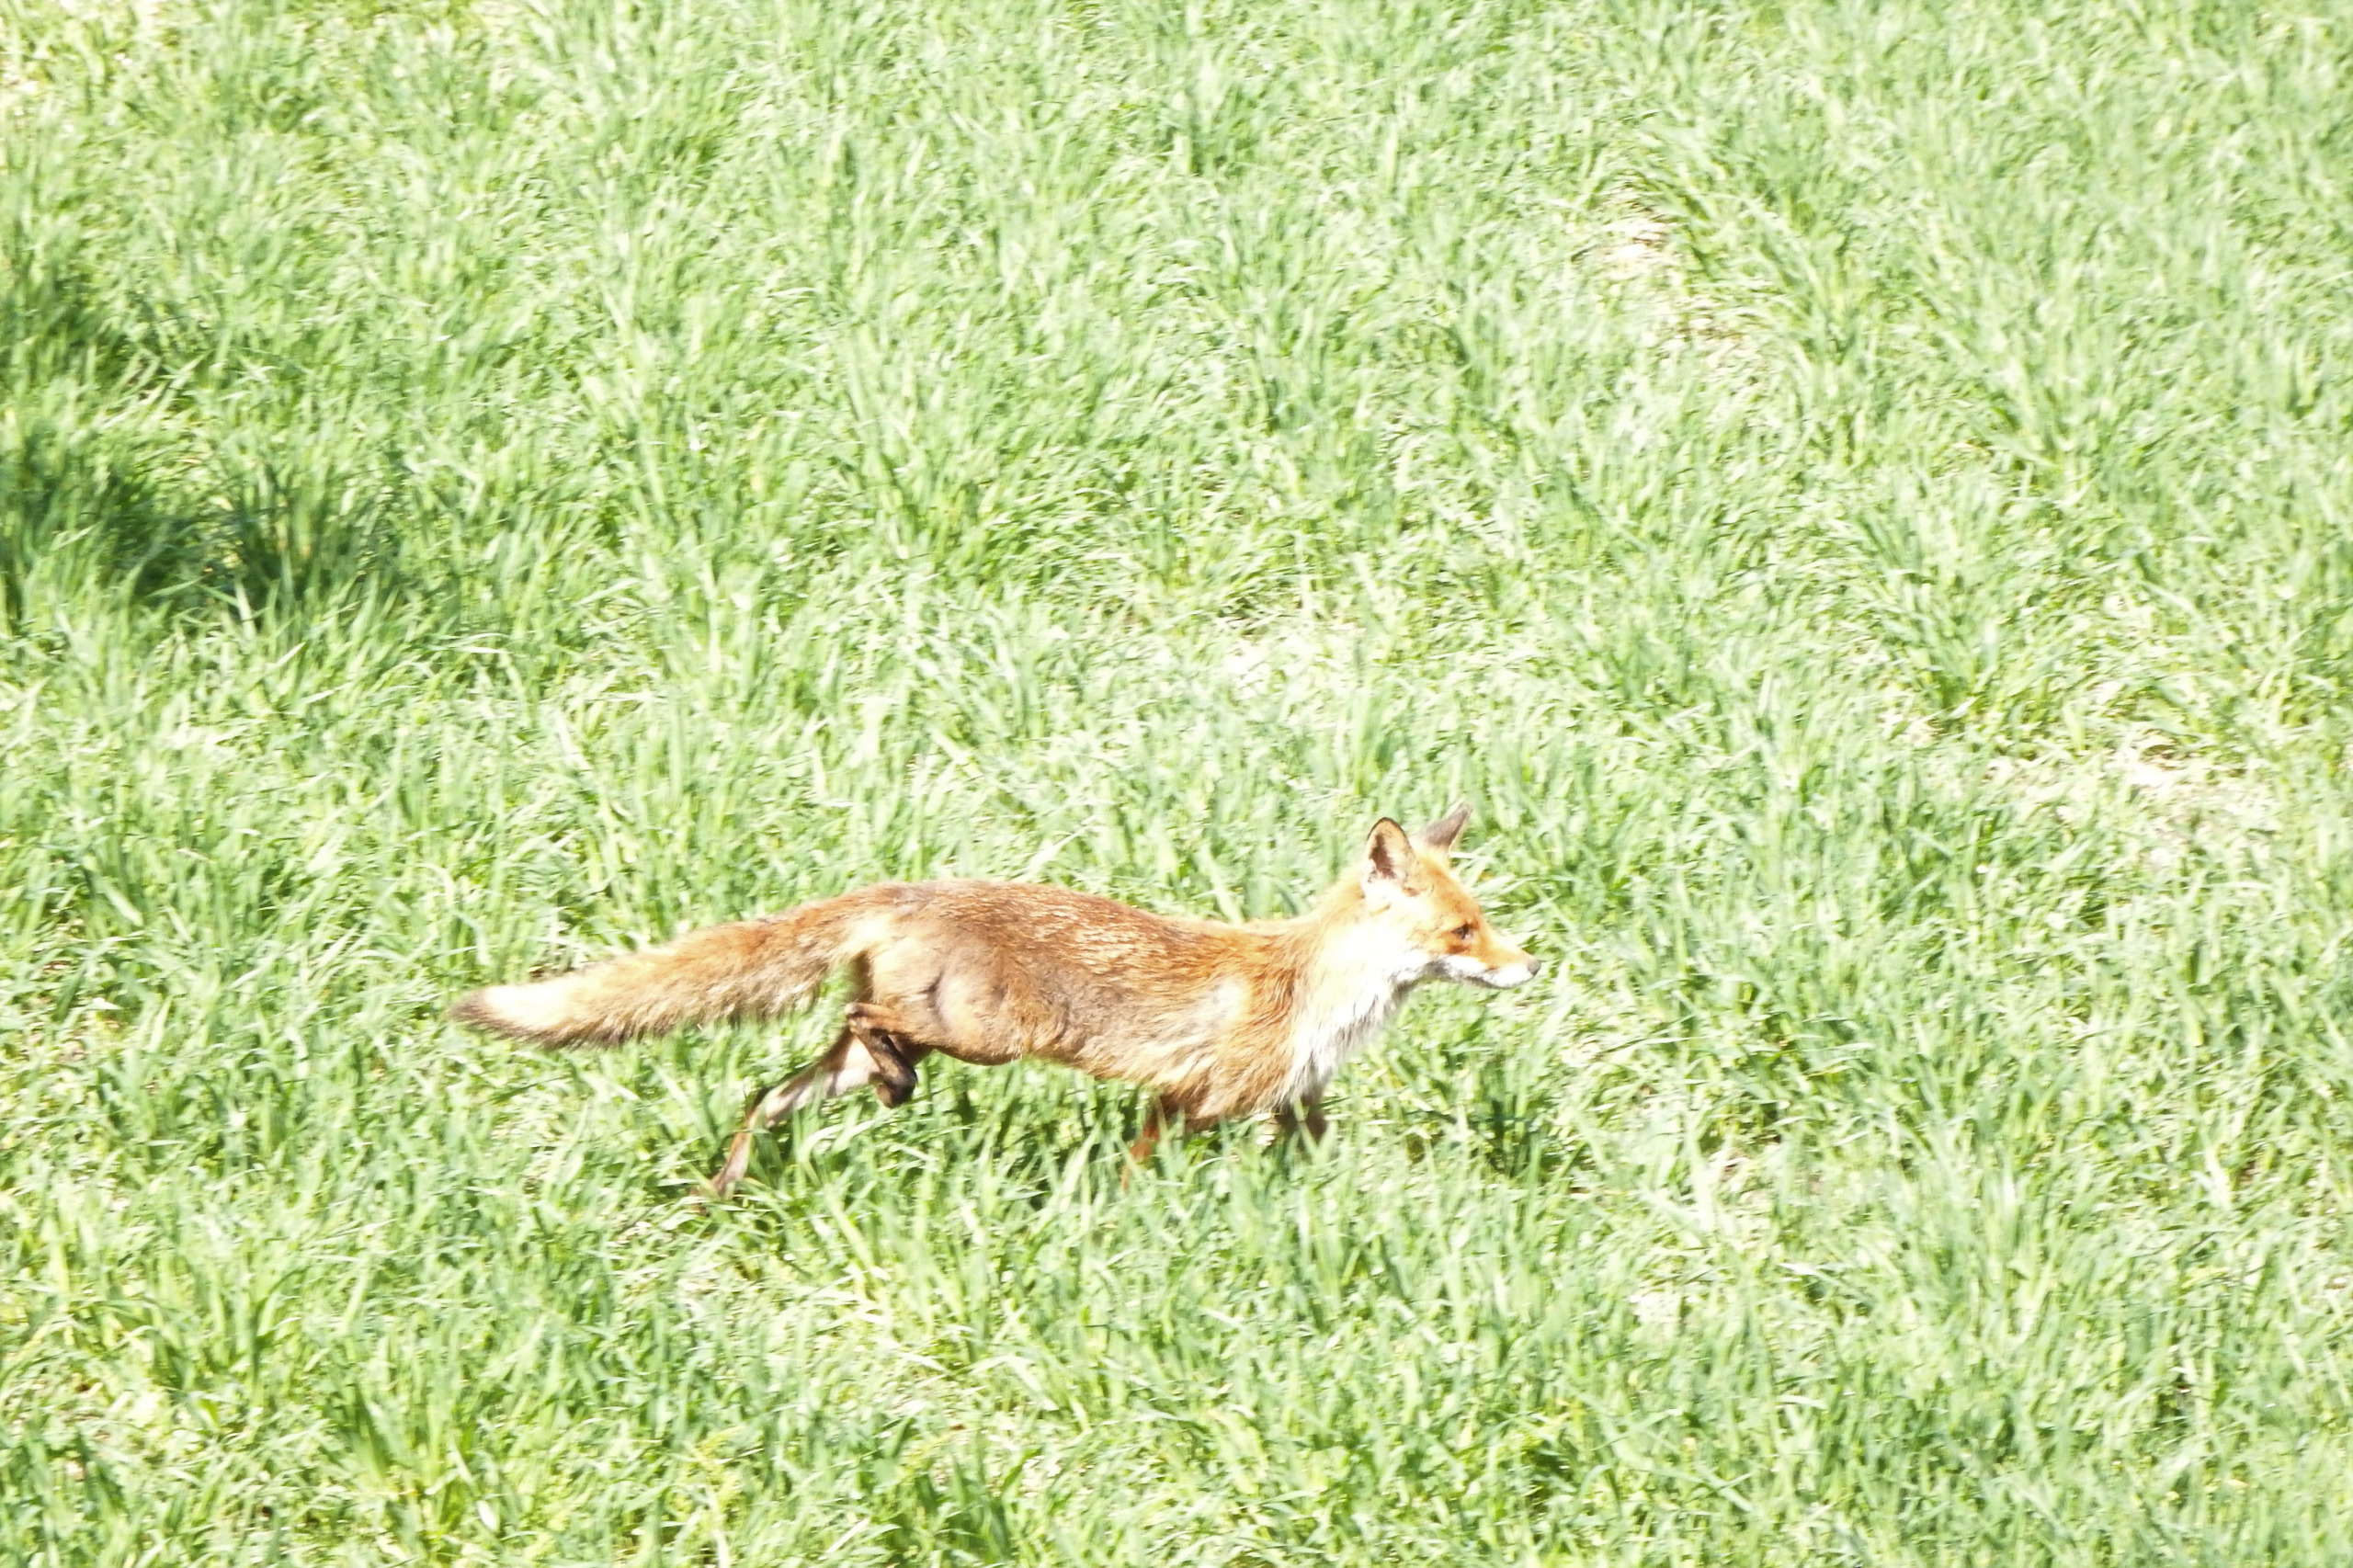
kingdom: Animalia
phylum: Chordata
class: Mammalia
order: Carnivora
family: Canidae
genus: Vulpes
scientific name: Vulpes vulpes
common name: Ræv
